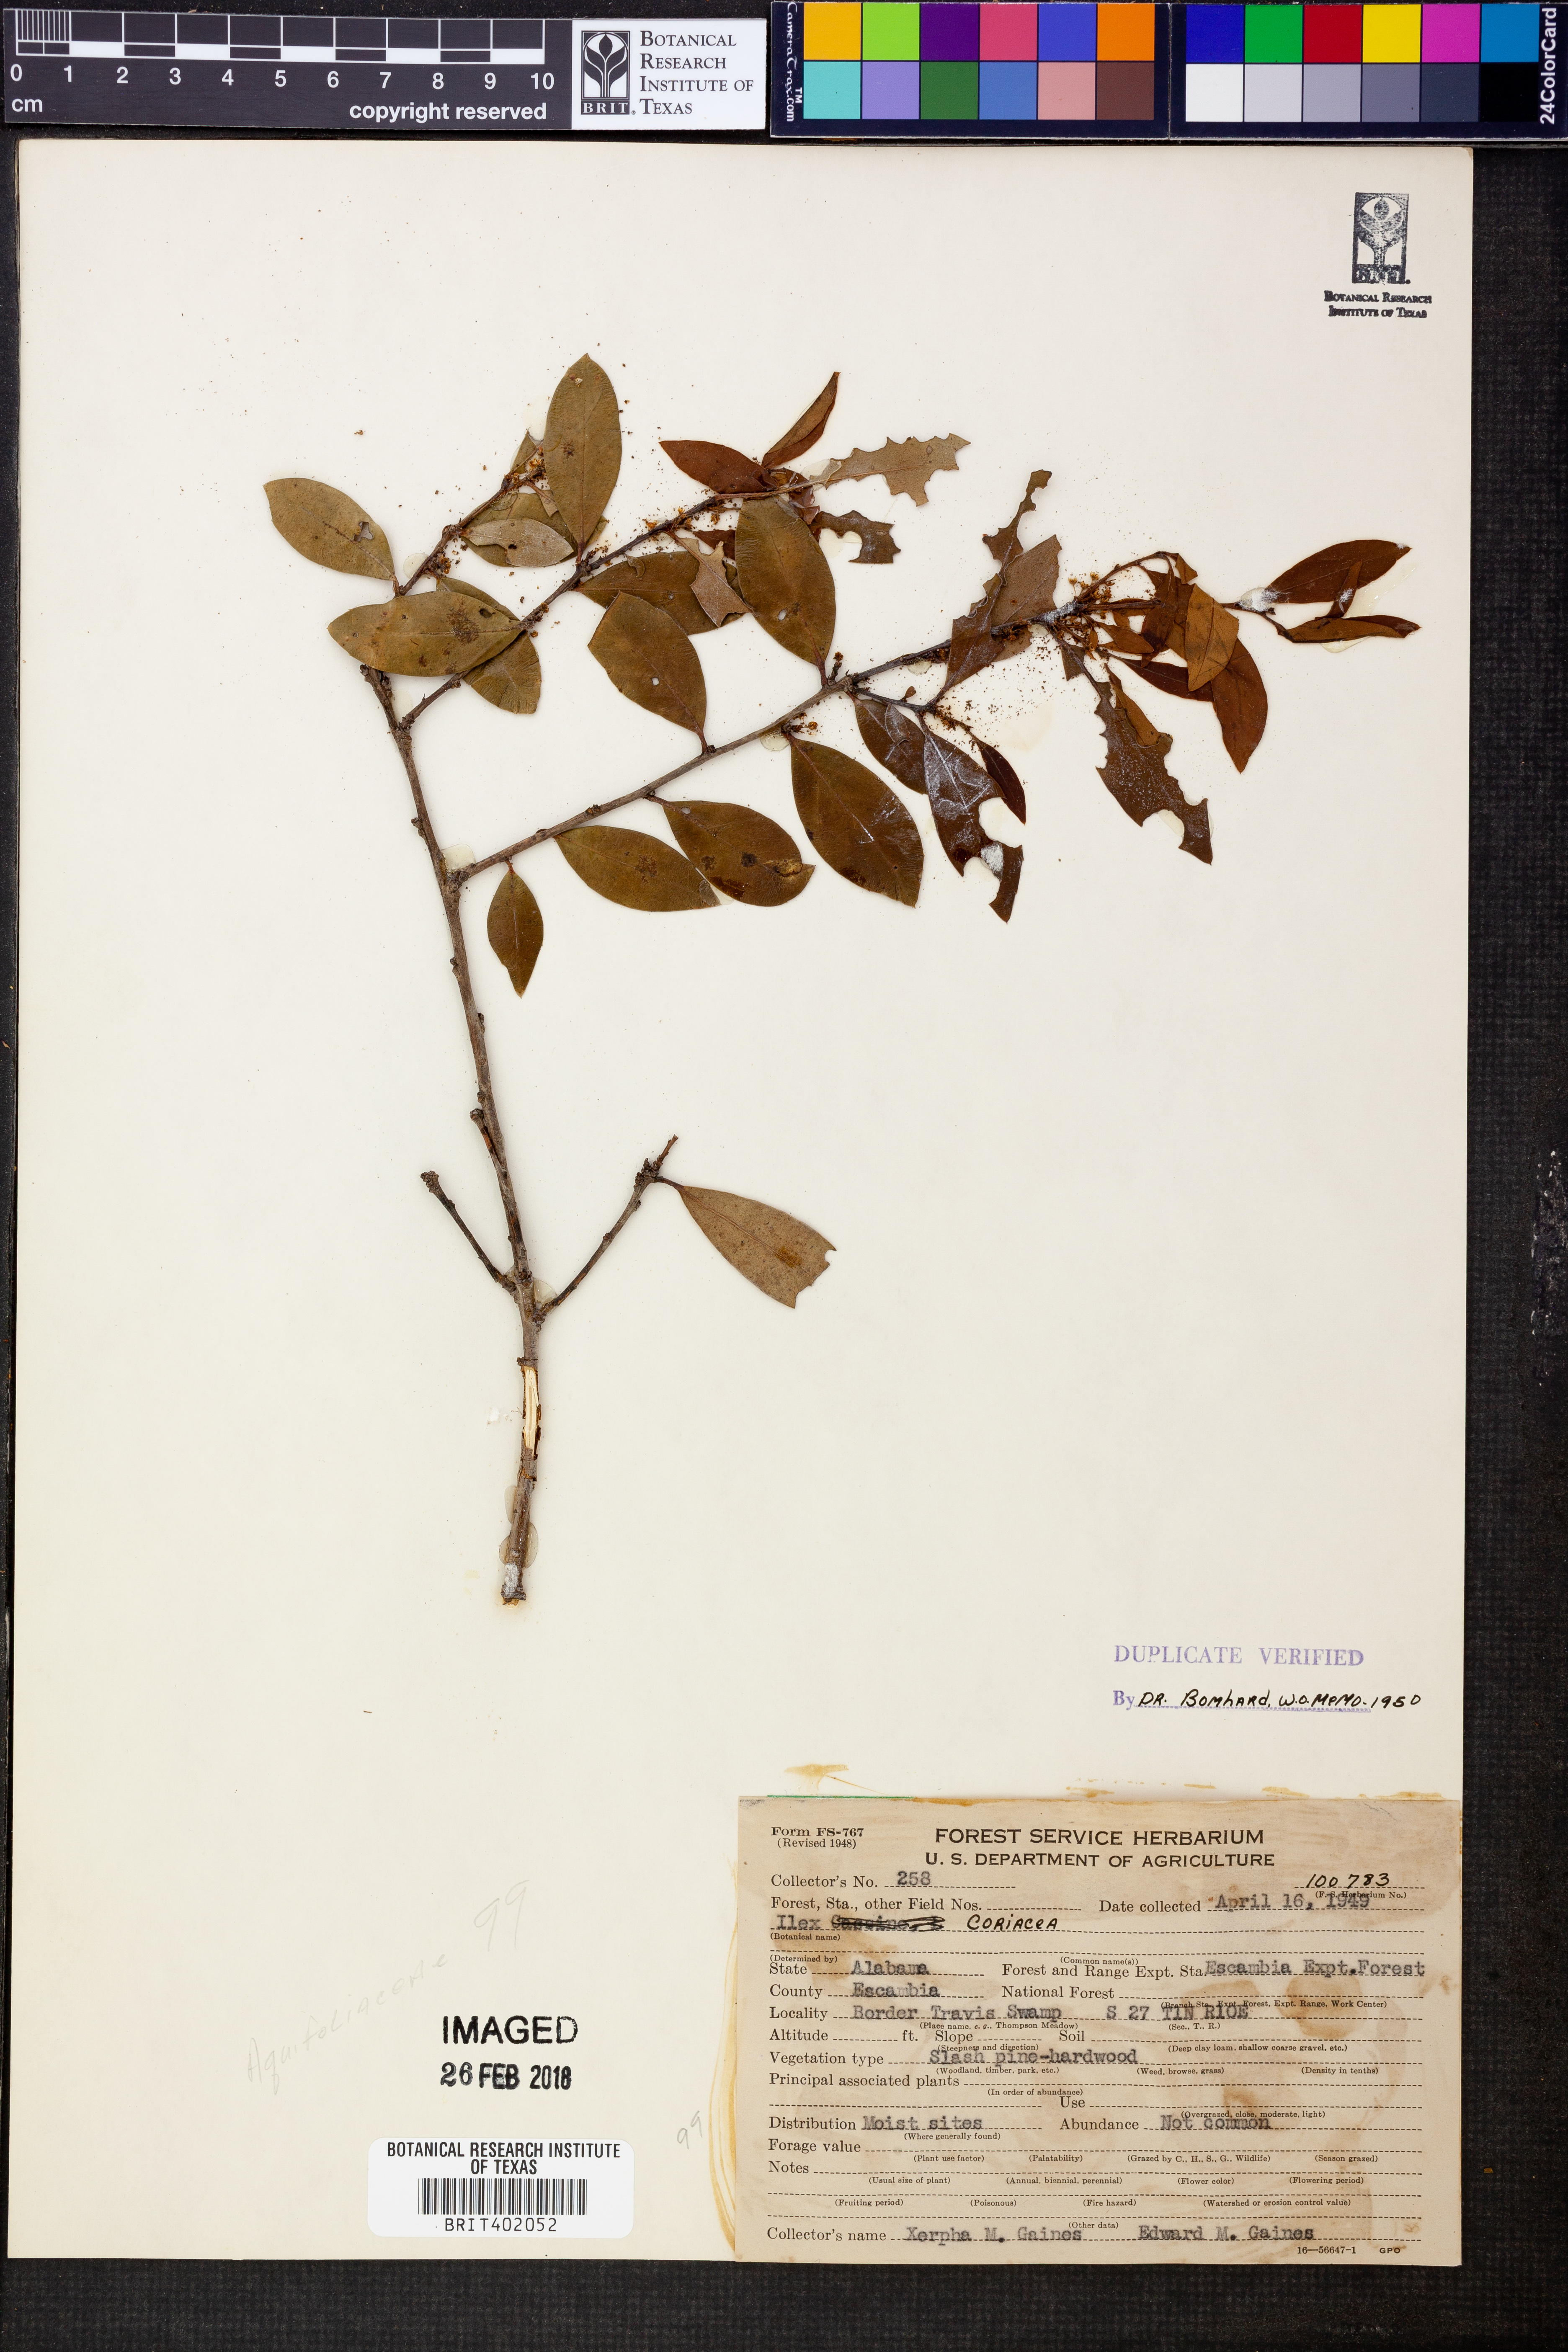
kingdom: Plantae
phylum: Tracheophyta
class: Magnoliopsida
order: Aquifoliales
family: Aquifoliaceae
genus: Ilex
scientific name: Ilex coriacea
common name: Sweet gallberry
